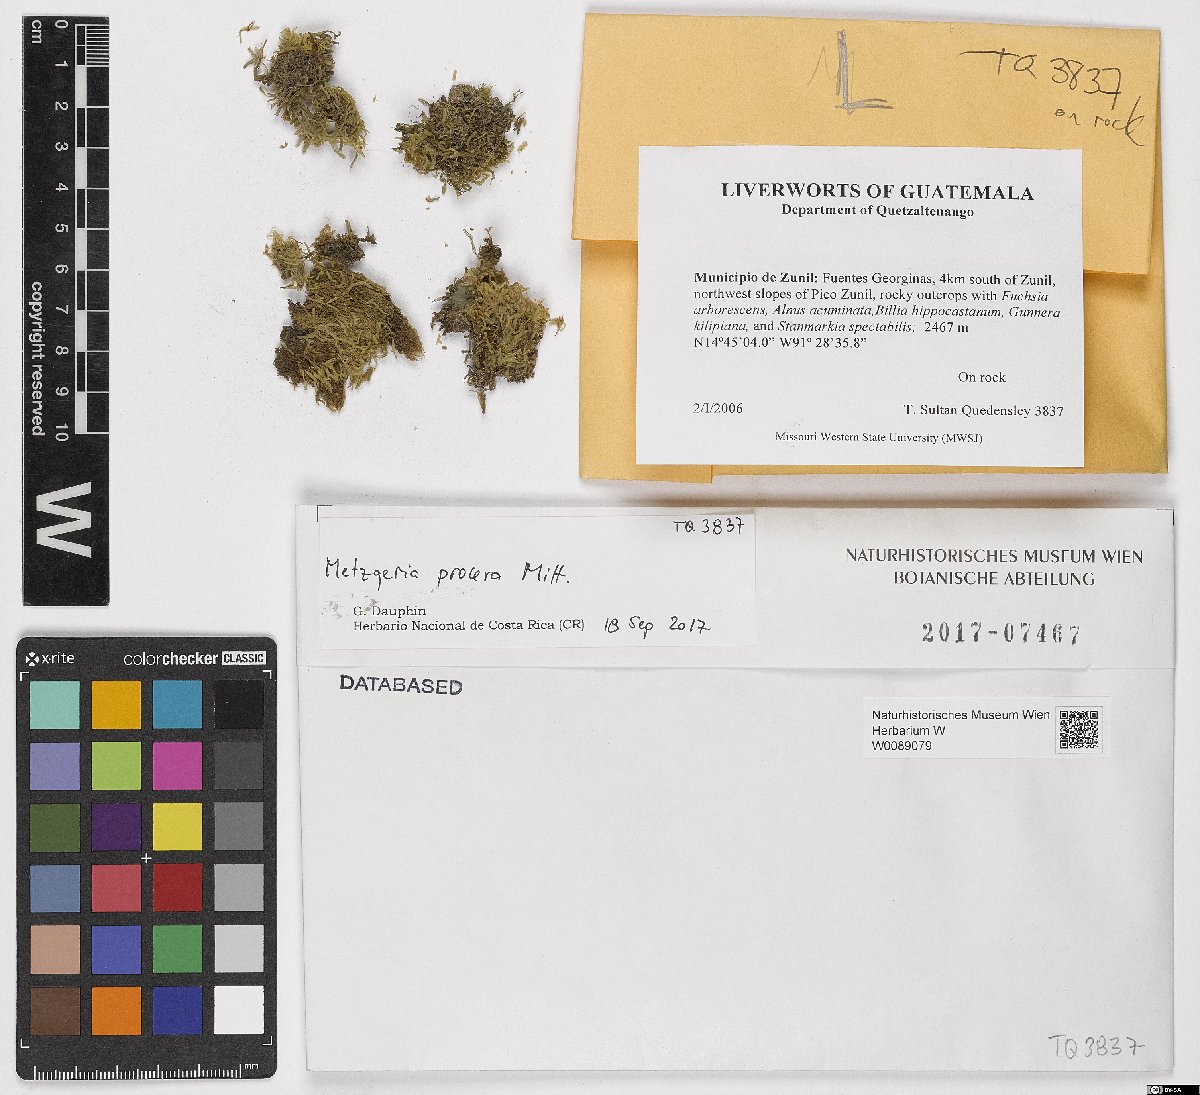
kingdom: Plantae
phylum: Marchantiophyta
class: Jungermanniopsida
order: Metzgeriales
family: Metzgeriaceae
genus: Metzgeria
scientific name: Metzgeria procera
